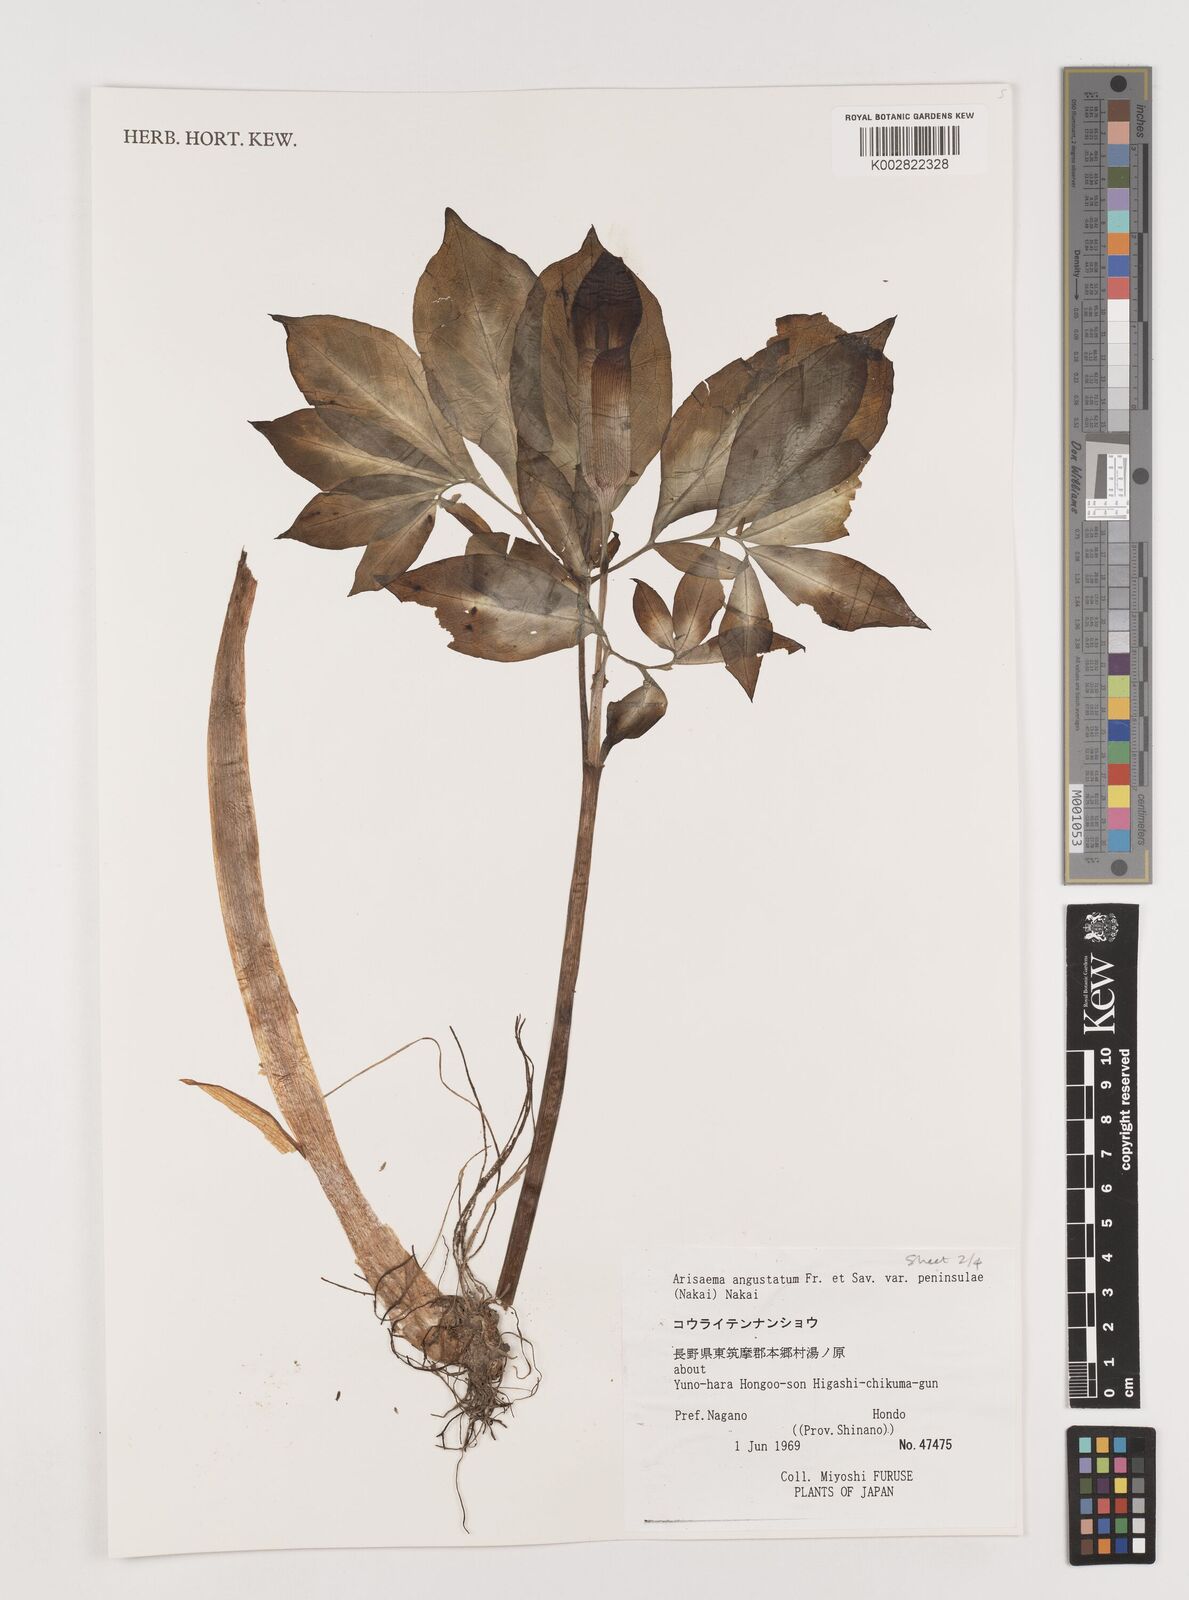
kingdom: Plantae
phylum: Tracheophyta
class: Liliopsida
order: Alismatales
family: Araceae
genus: Arisaema
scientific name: Arisaema angustatum
